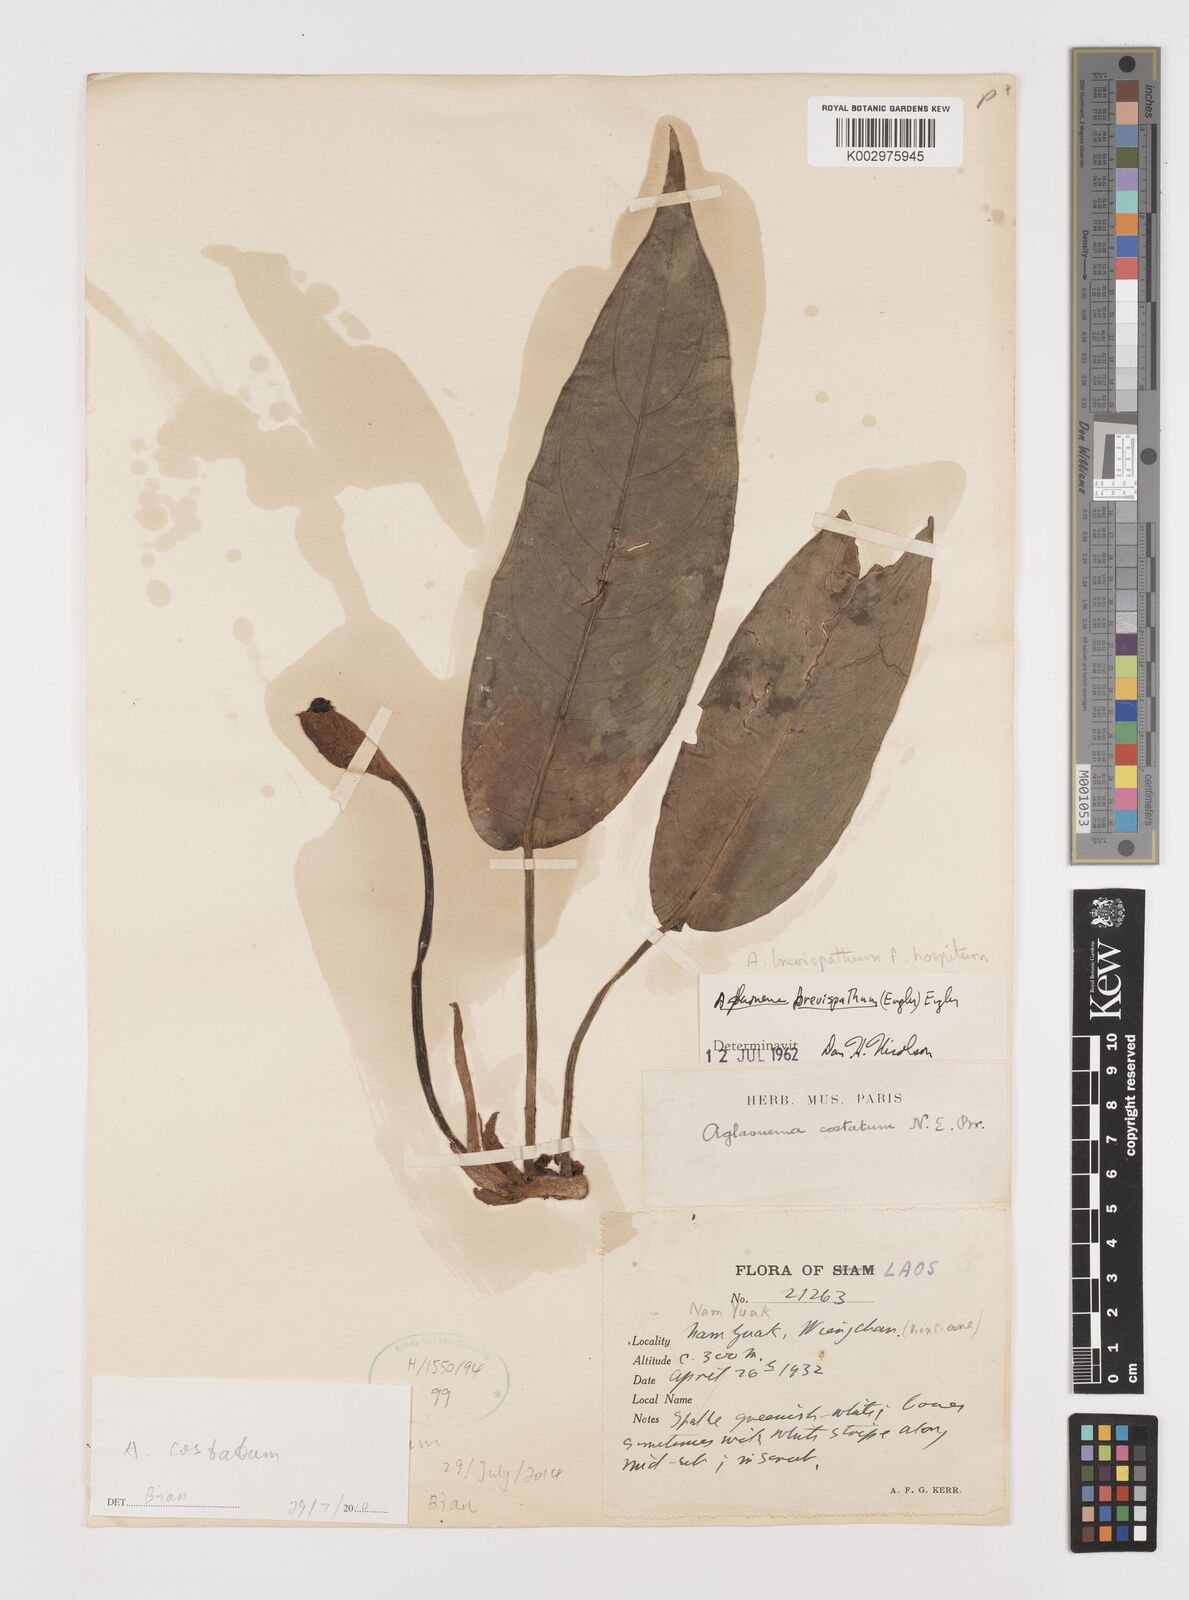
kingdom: Plantae
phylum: Tracheophyta
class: Liliopsida
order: Alismatales
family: Araceae
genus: Aglaonema
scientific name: Aglaonema costatum
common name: Chinese evergreen
